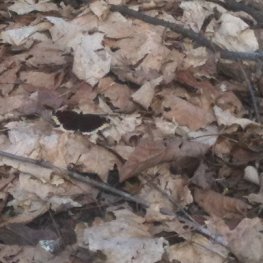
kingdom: Animalia
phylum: Arthropoda
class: Insecta
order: Lepidoptera
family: Nymphalidae
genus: Nymphalis
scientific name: Nymphalis antiopa
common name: Mourning Cloak
